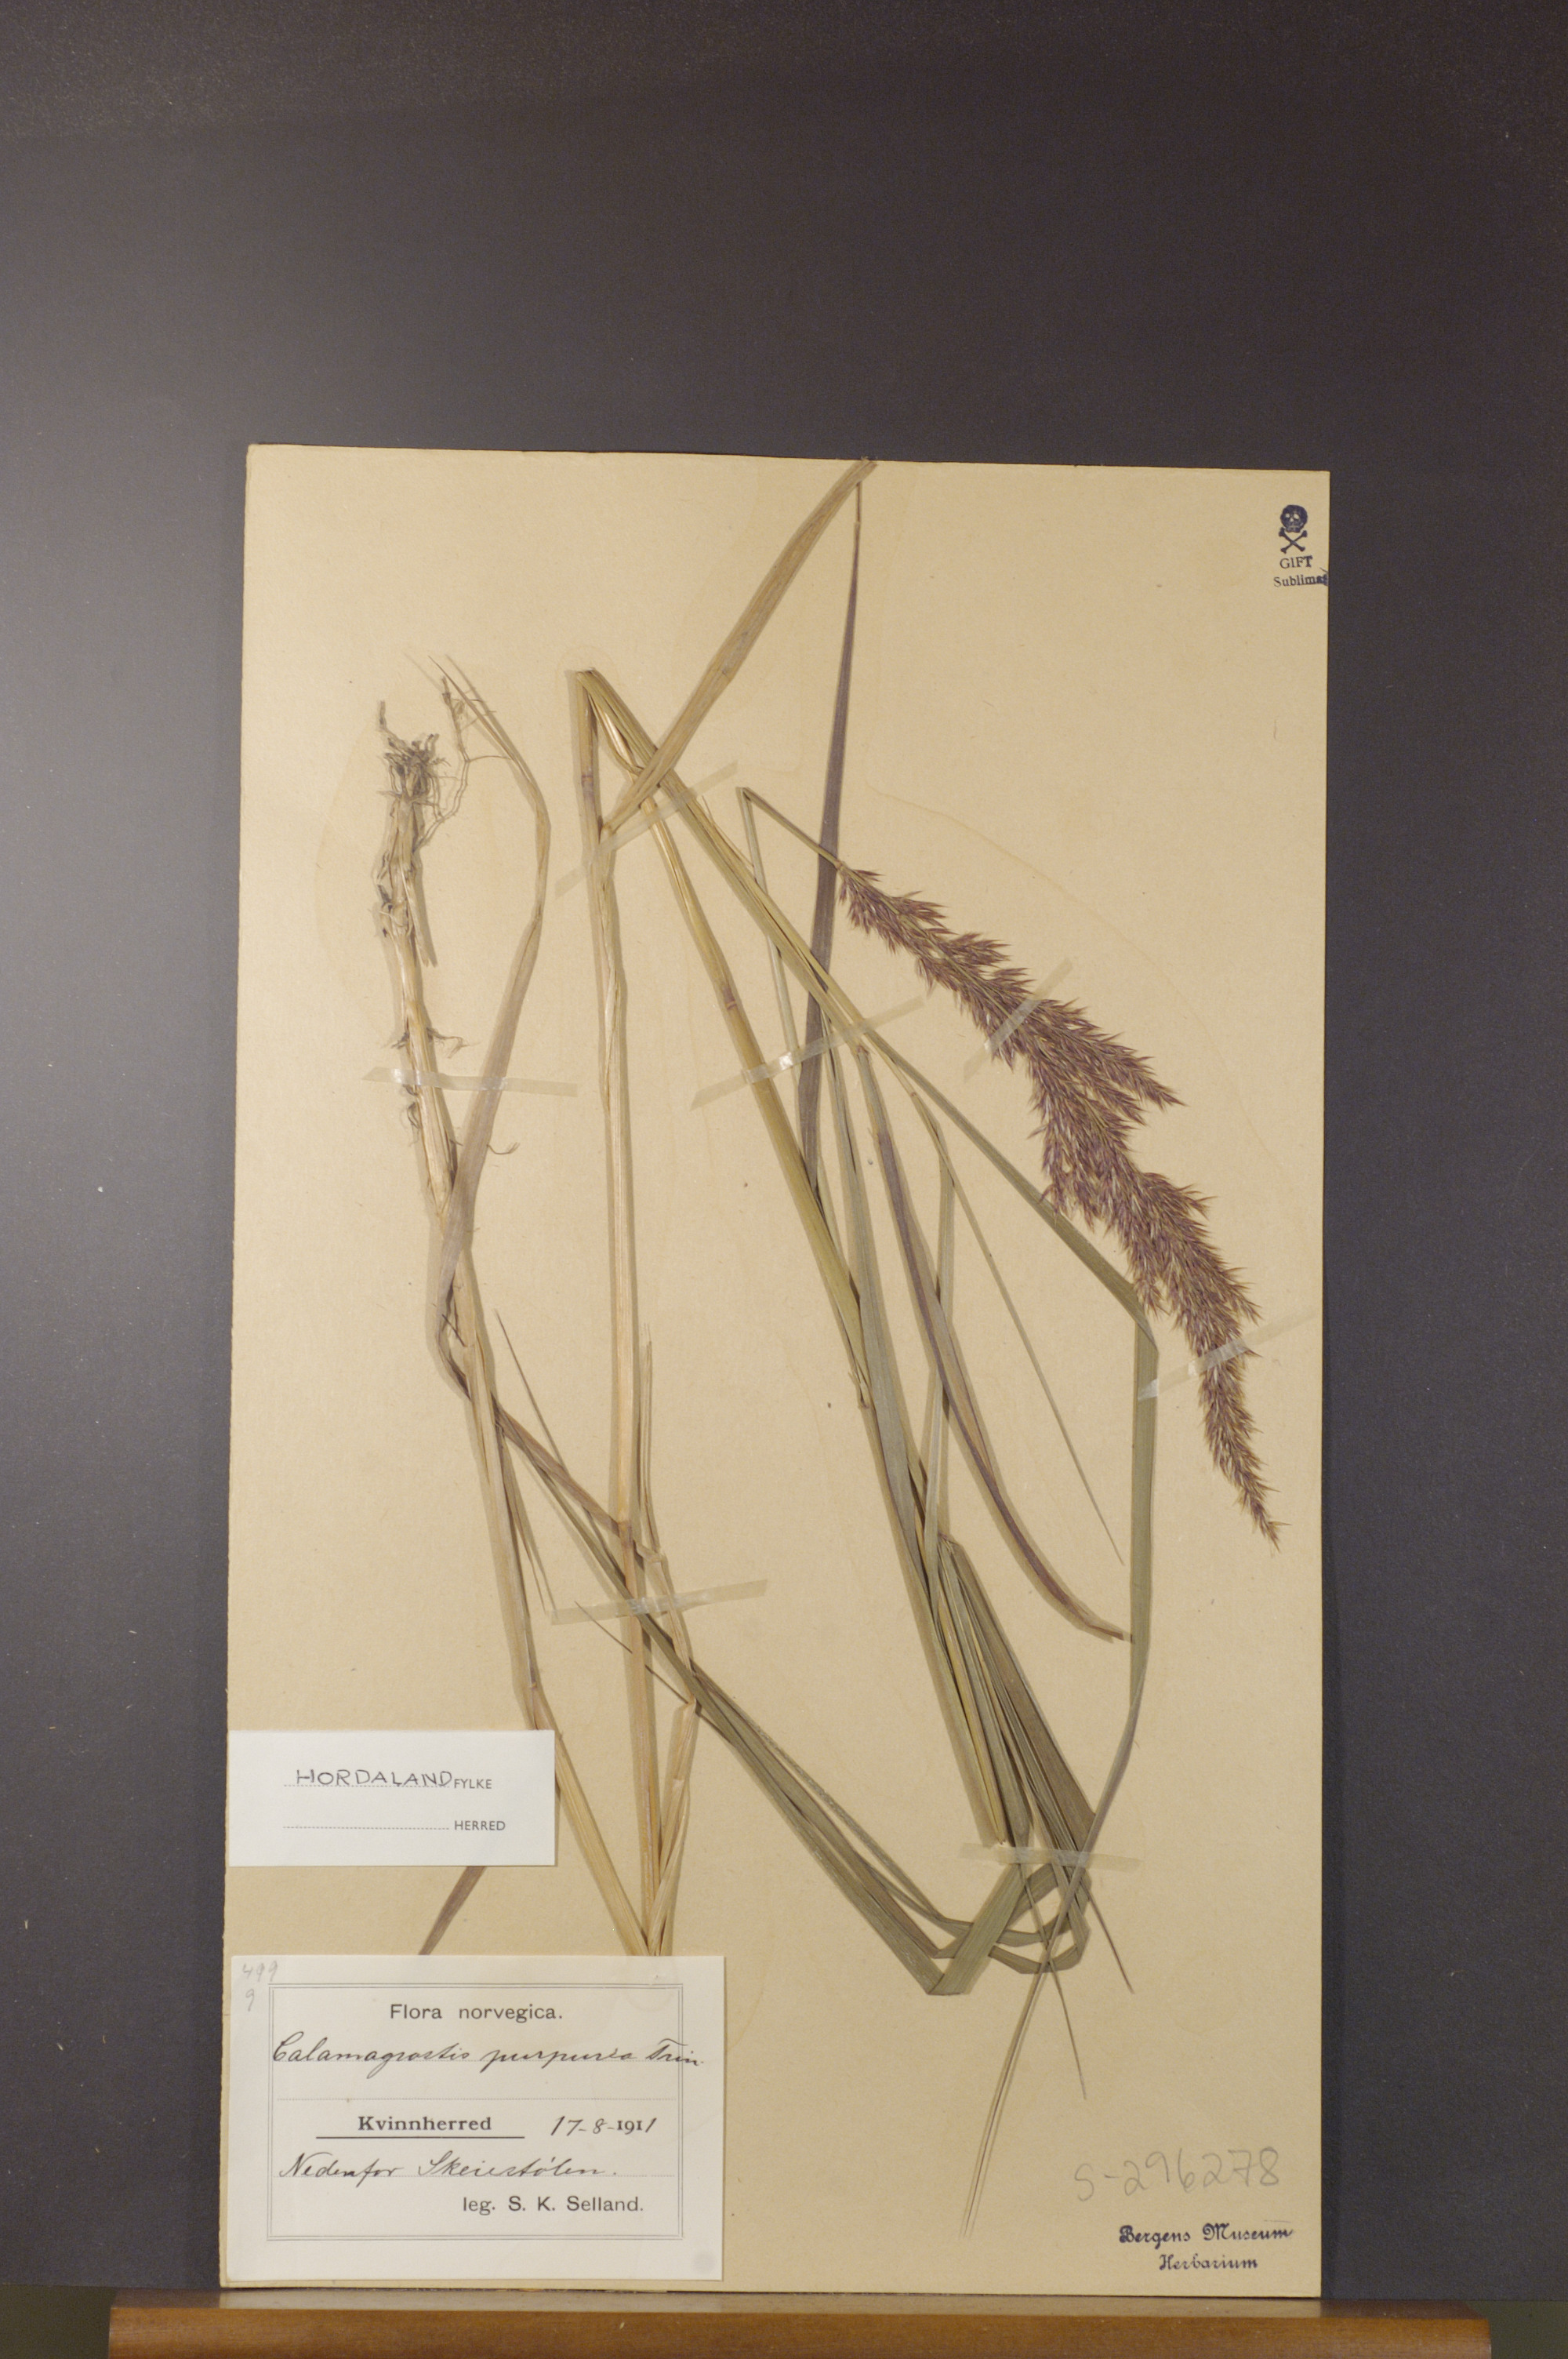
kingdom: Plantae
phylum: Tracheophyta
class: Liliopsida
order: Poales
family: Poaceae
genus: Calamagrostis
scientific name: Calamagrostis purpurea
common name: Scandinavian small-reed
